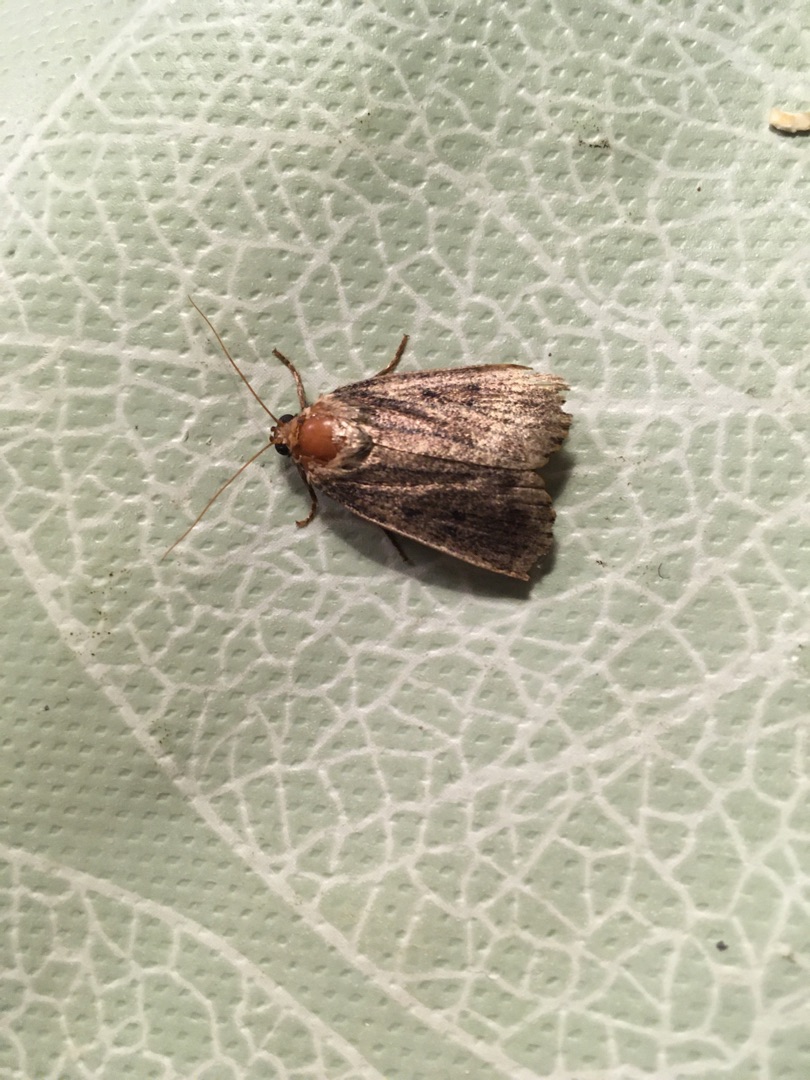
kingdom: Animalia
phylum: Arthropoda
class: Insecta
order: Lepidoptera
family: Noctuidae
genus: Amphipyra
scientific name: Amphipyra tragopoginis
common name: Blyantsugle
